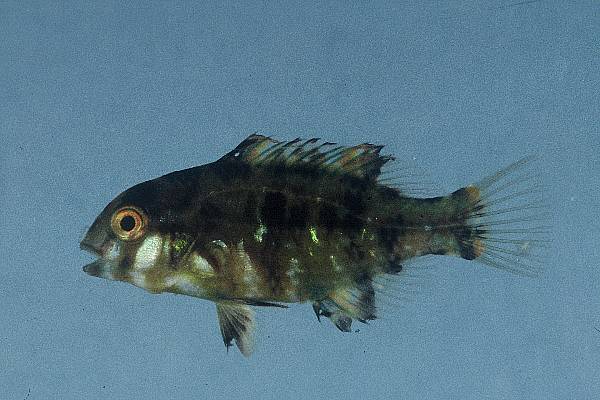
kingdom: Animalia
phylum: Chordata
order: Perciformes
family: Labridae
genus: Choerodon
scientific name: Choerodon graphicus
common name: Graphic tuskfish
